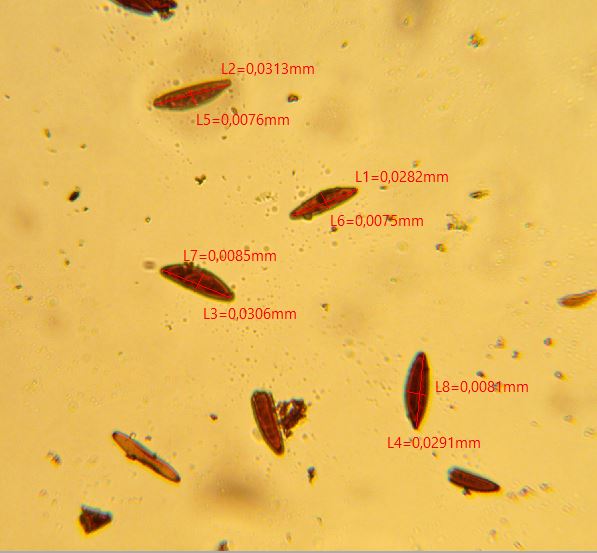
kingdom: Fungi
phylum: Ascomycota
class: Sordariomycetes
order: Xylariales
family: Xylariaceae
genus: Kretzschmaria
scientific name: Kretzschmaria deusta
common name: stor kulsvamp
